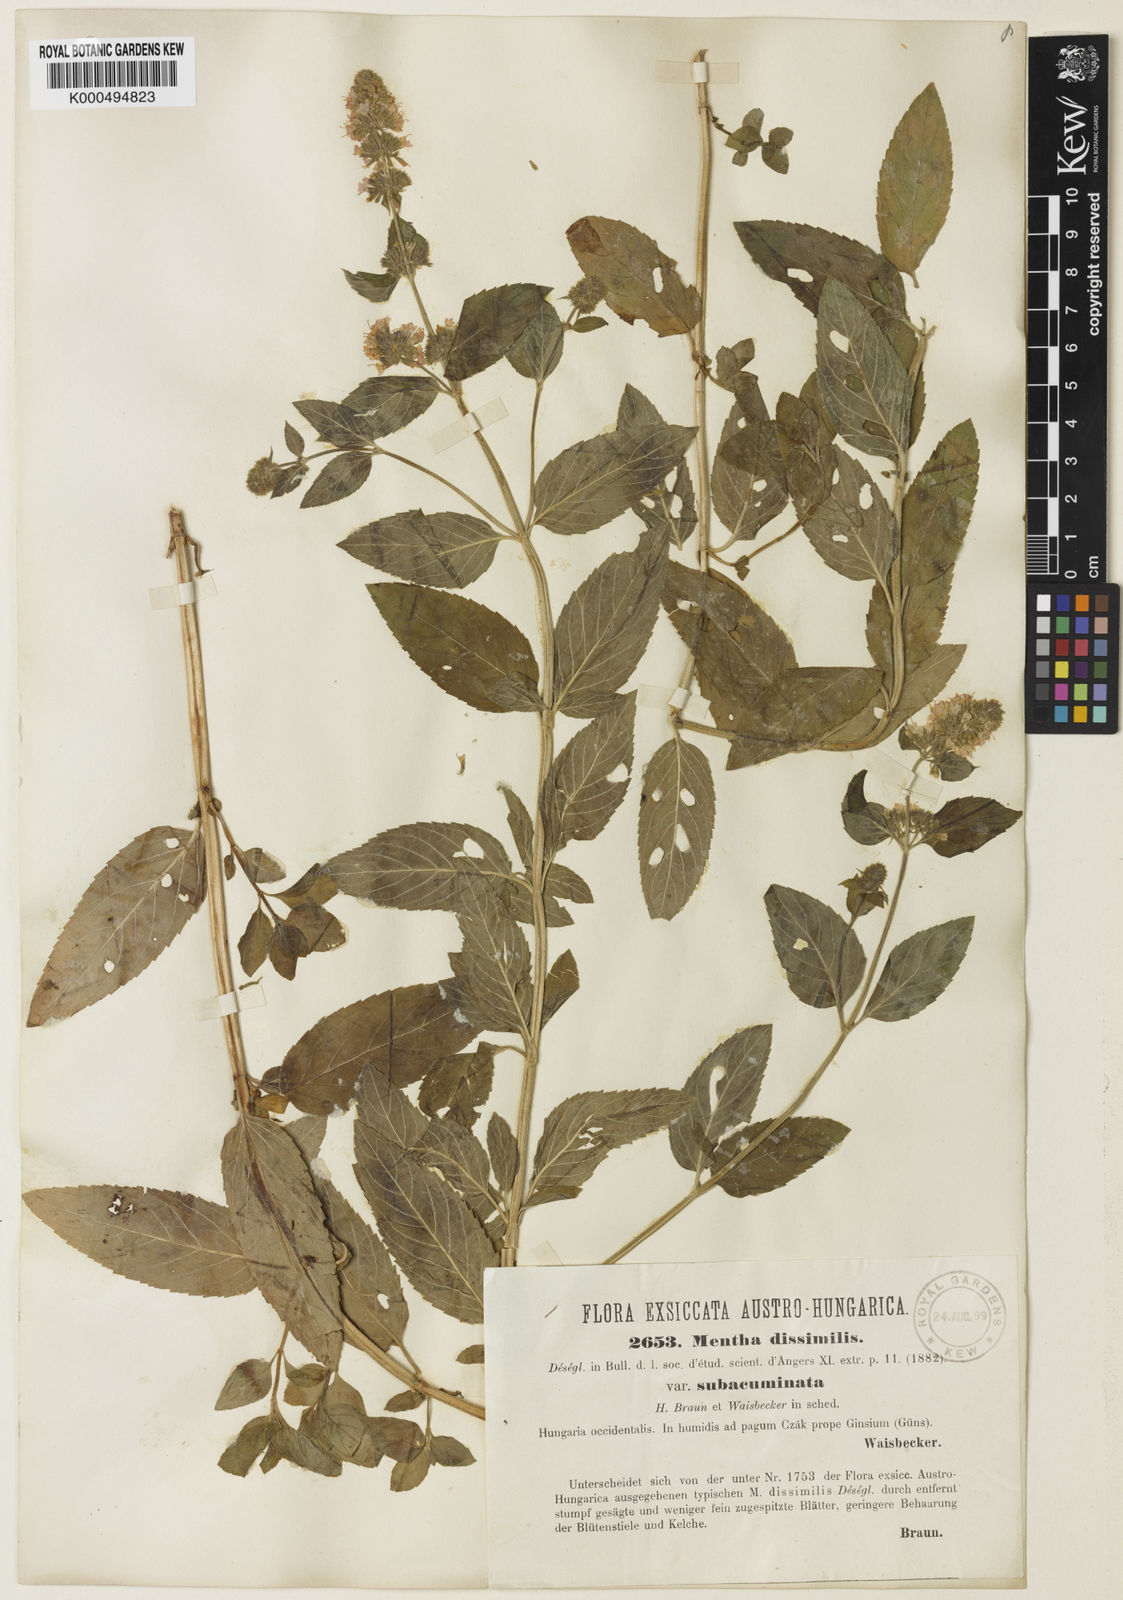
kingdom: Plantae
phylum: Tracheophyta
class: Magnoliopsida
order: Lamiales
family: Lamiaceae
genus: Mentha
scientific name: Mentha aquatica
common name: Water mint
